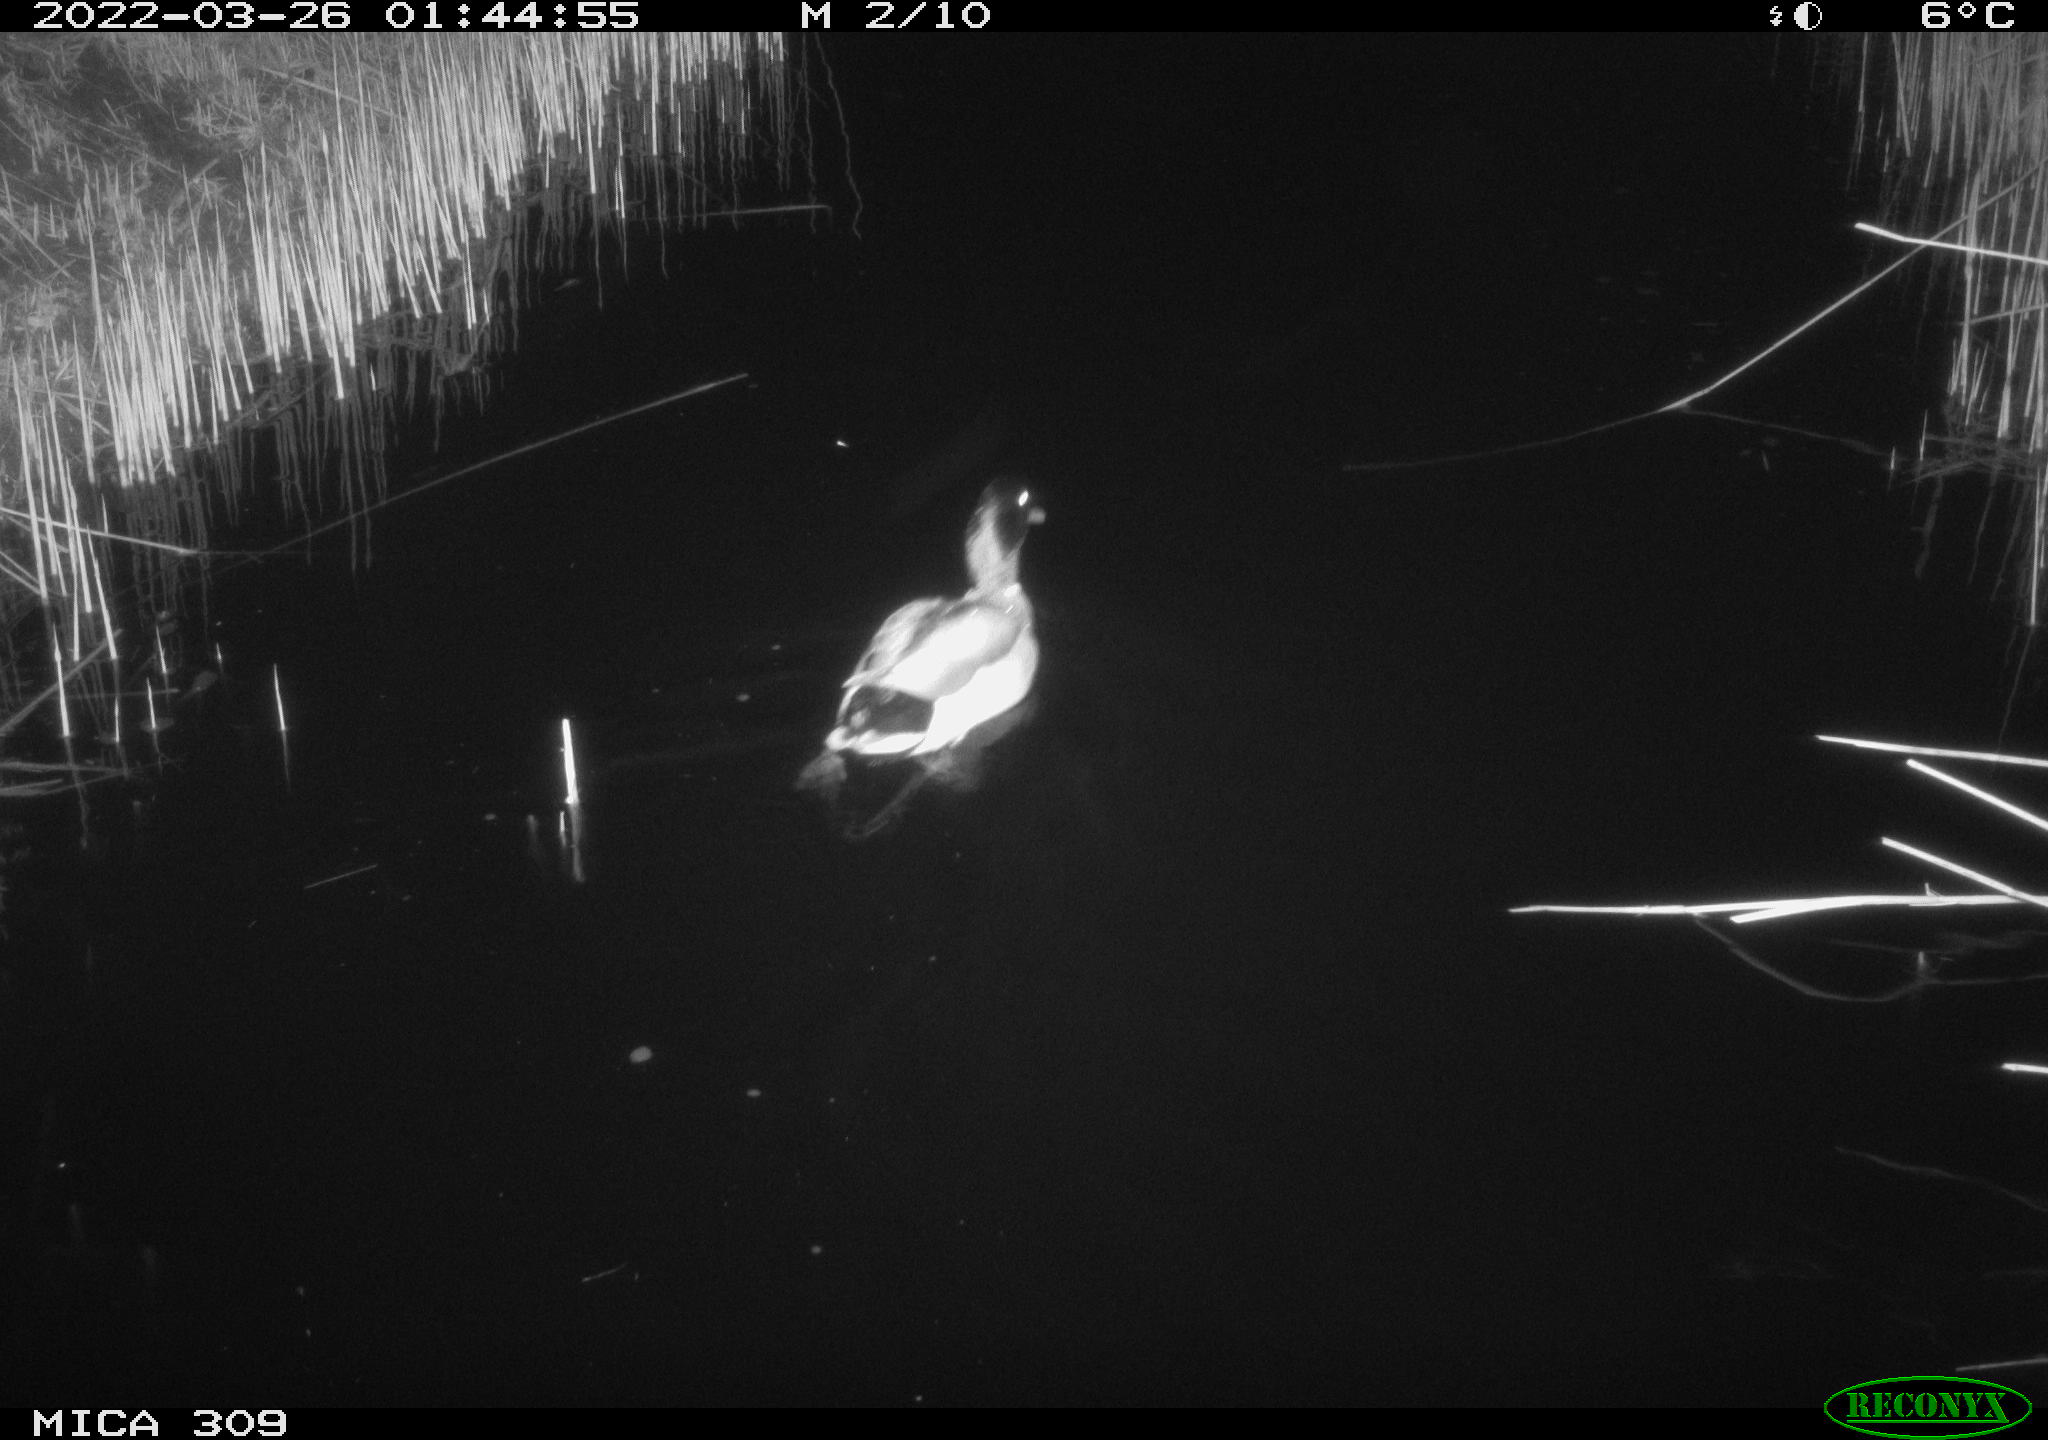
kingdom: Animalia
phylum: Chordata
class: Aves
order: Anseriformes
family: Anatidae
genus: Anas
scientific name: Anas platyrhynchos
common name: Mallard
